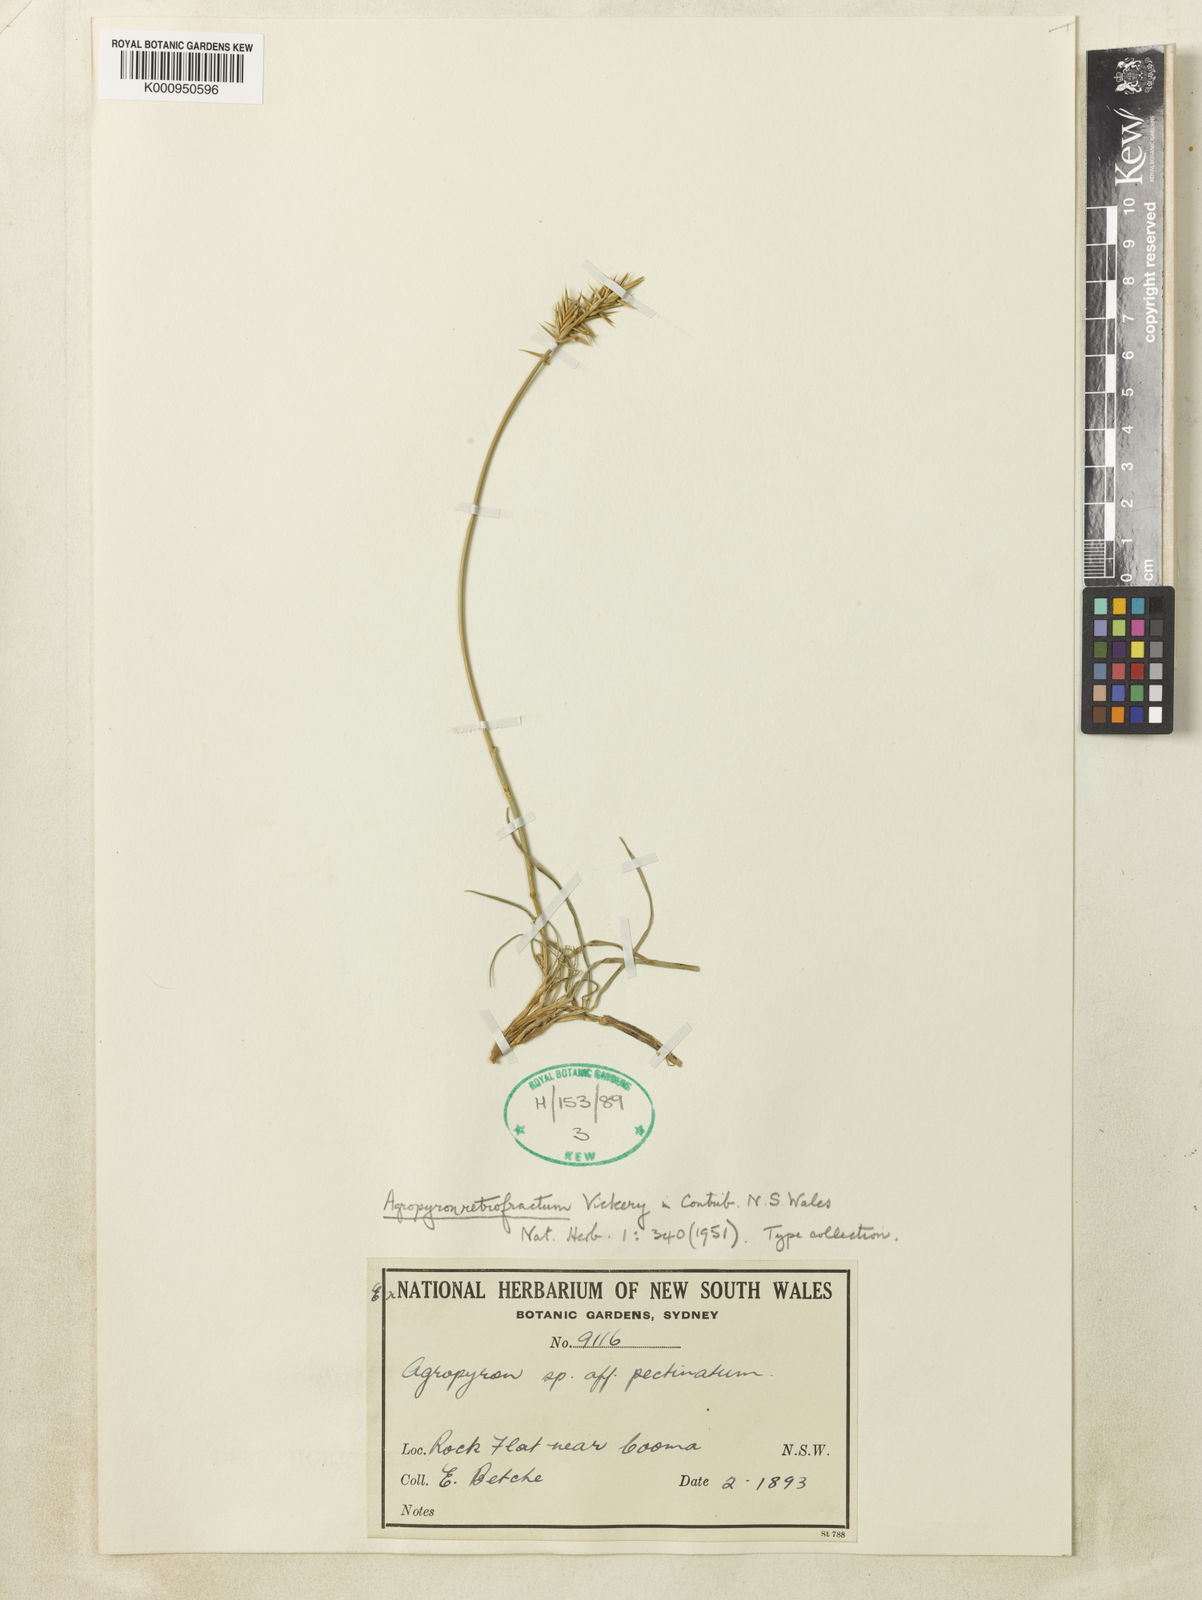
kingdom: Plantae
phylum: Tracheophyta
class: Liliopsida
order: Poales
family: Poaceae
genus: Australopyrum
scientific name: Australopyrum retrofractum
